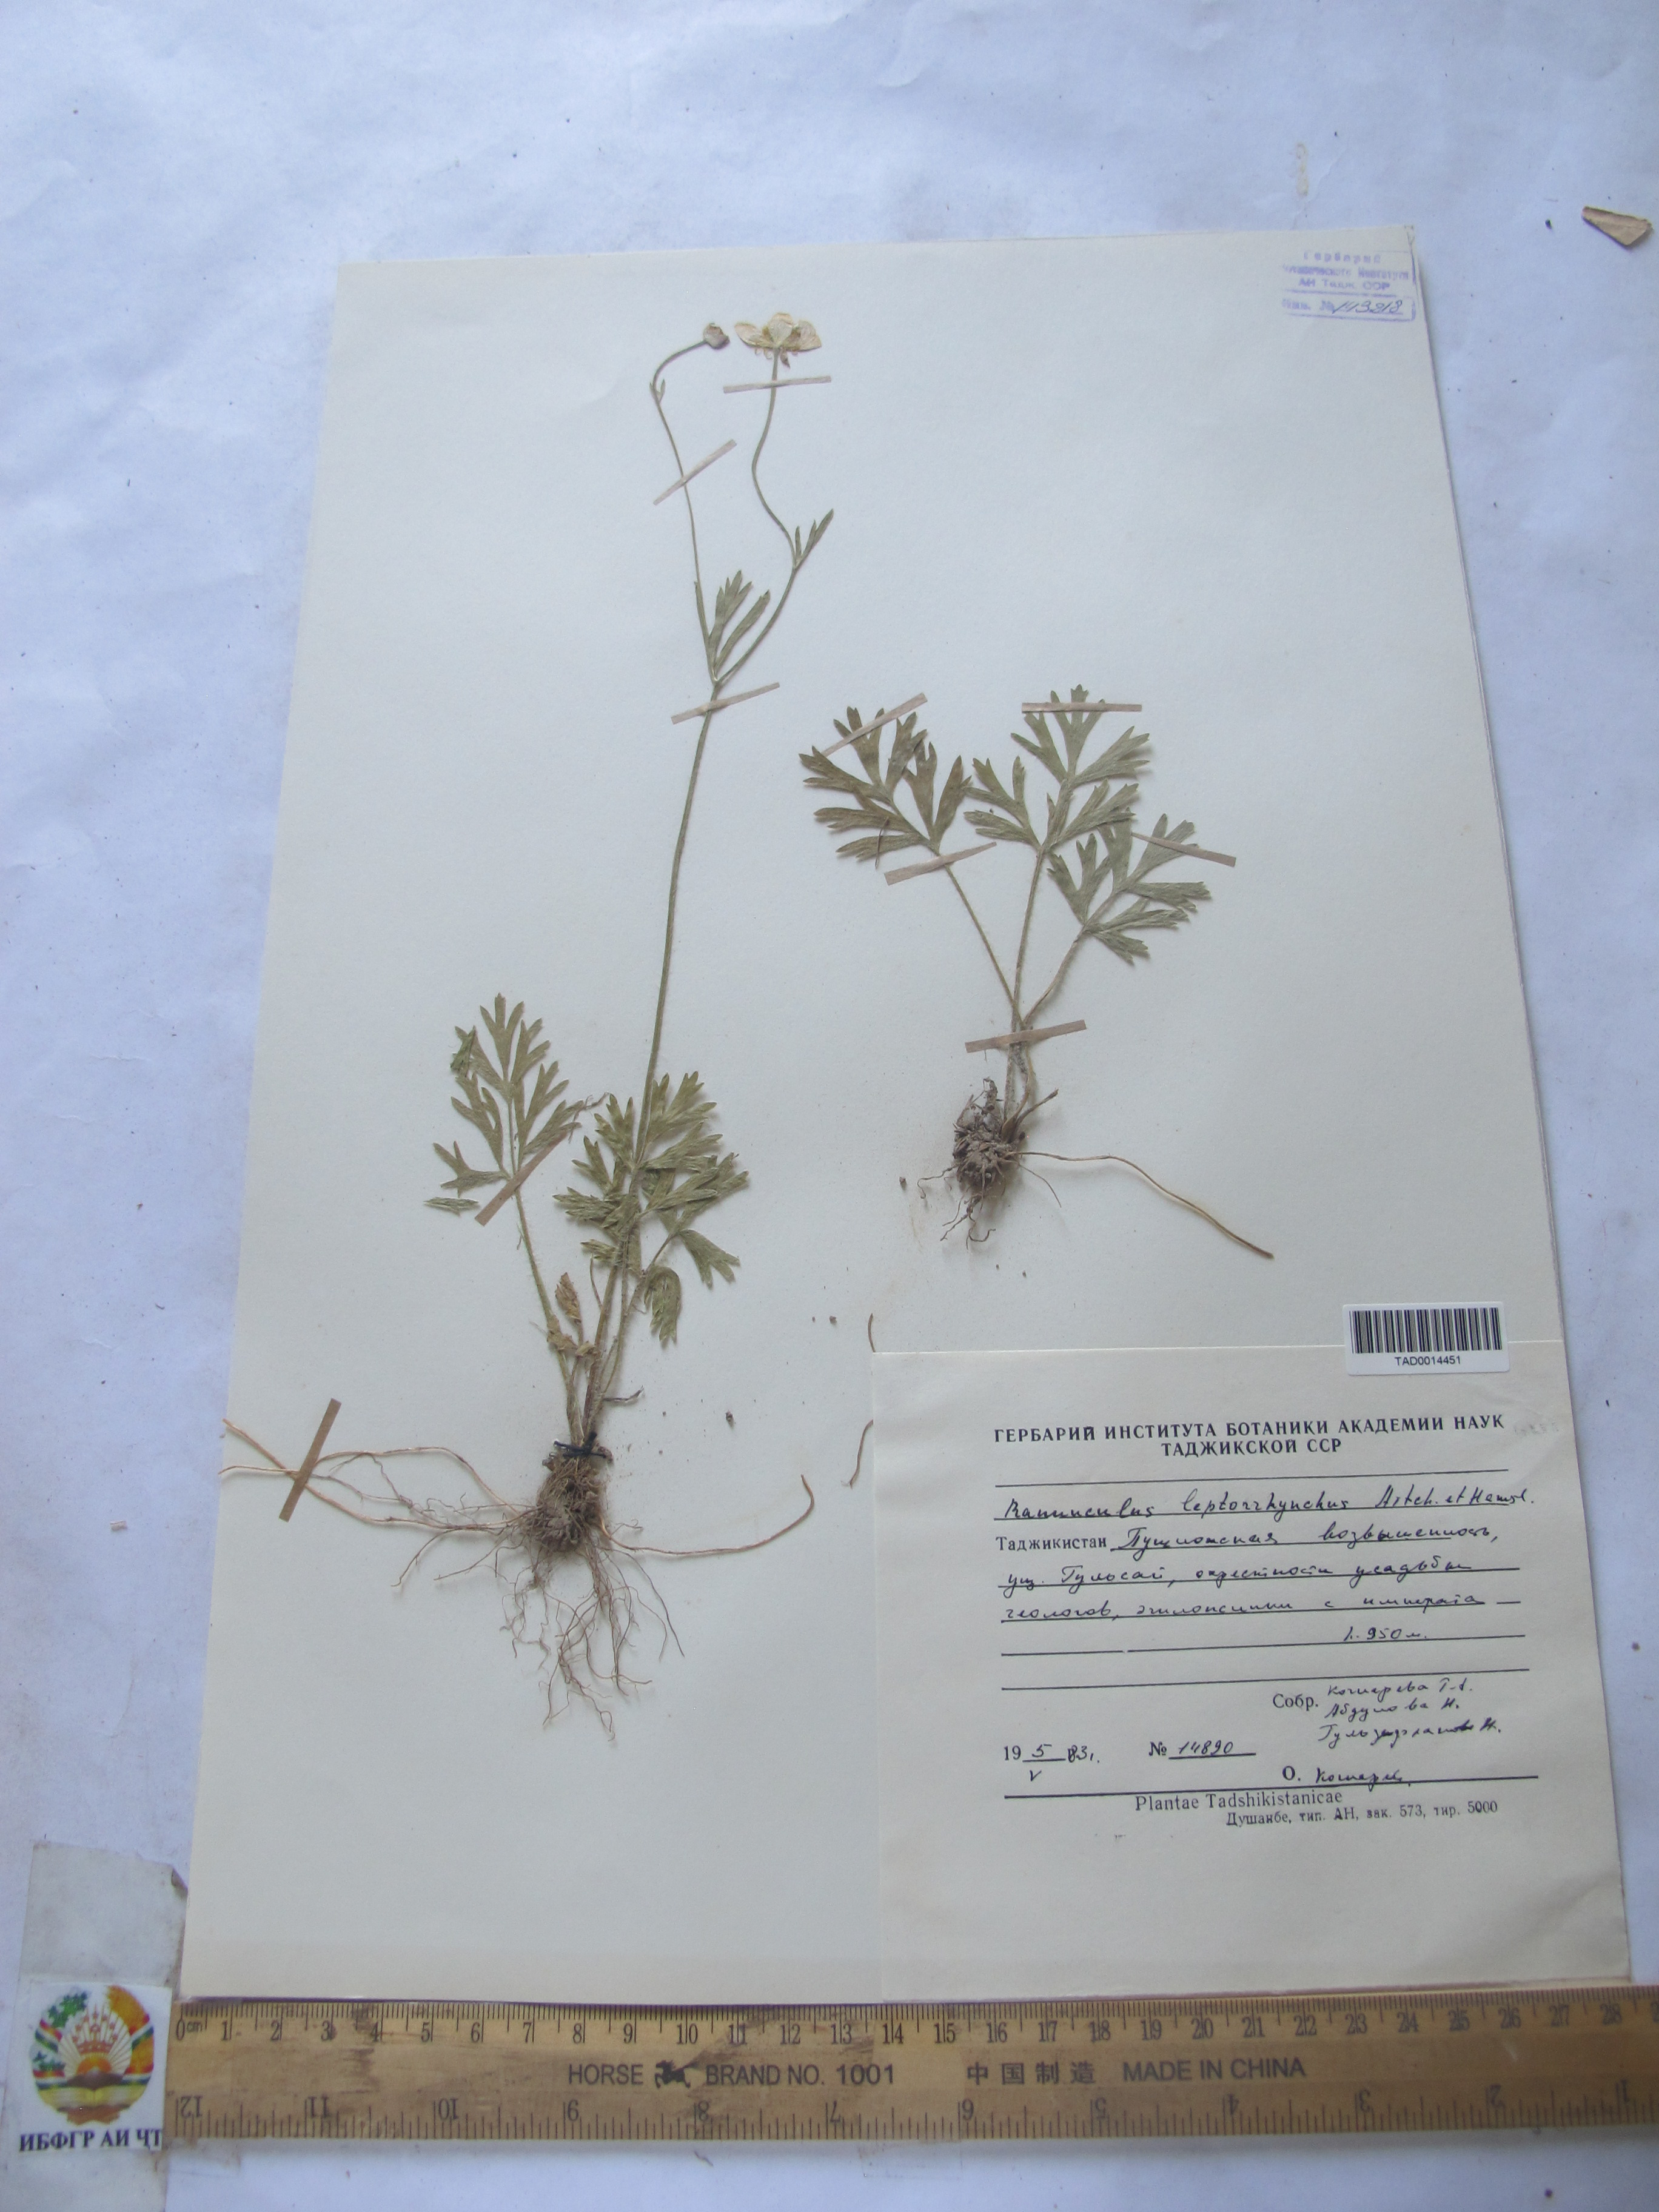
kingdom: Plantae
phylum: Tracheophyta
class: Magnoliopsida
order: Ranunculales
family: Ranunculaceae
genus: Ranunculus
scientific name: Ranunculus leptorrhynchus
